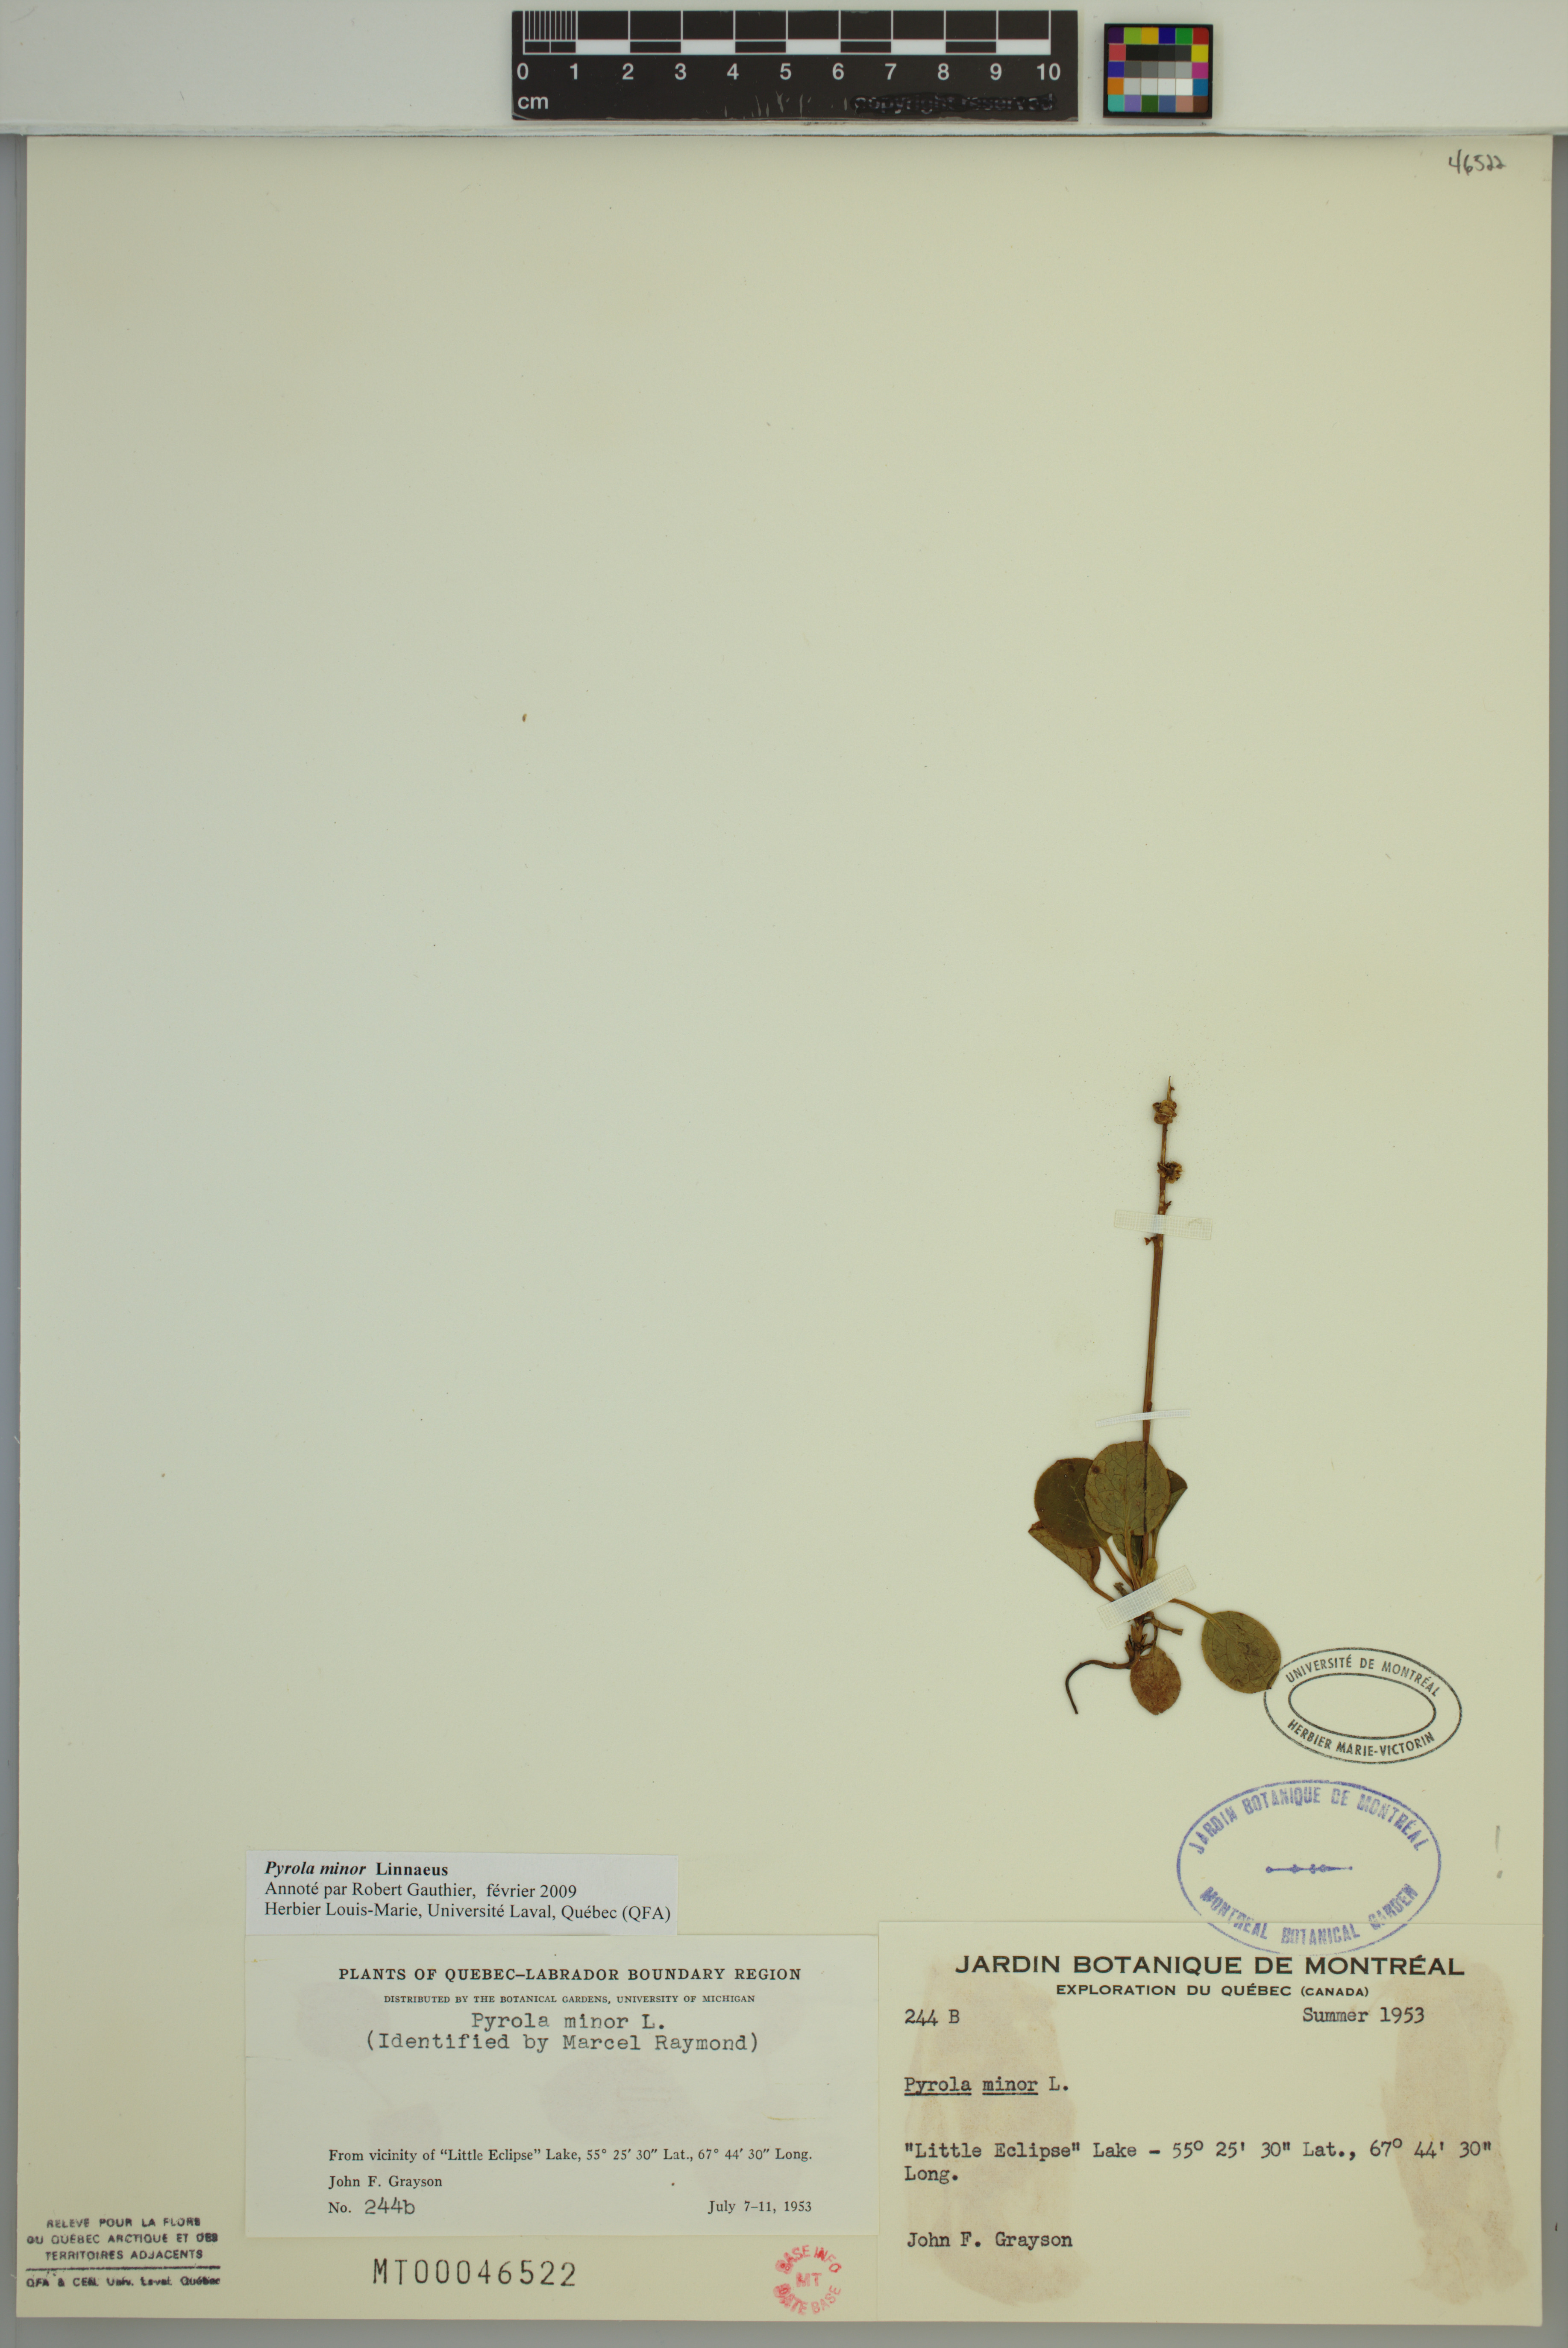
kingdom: Plantae
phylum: Tracheophyta
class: Magnoliopsida
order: Ericales
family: Ericaceae
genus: Pyrola
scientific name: Pyrola minor
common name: Common wintergreen
